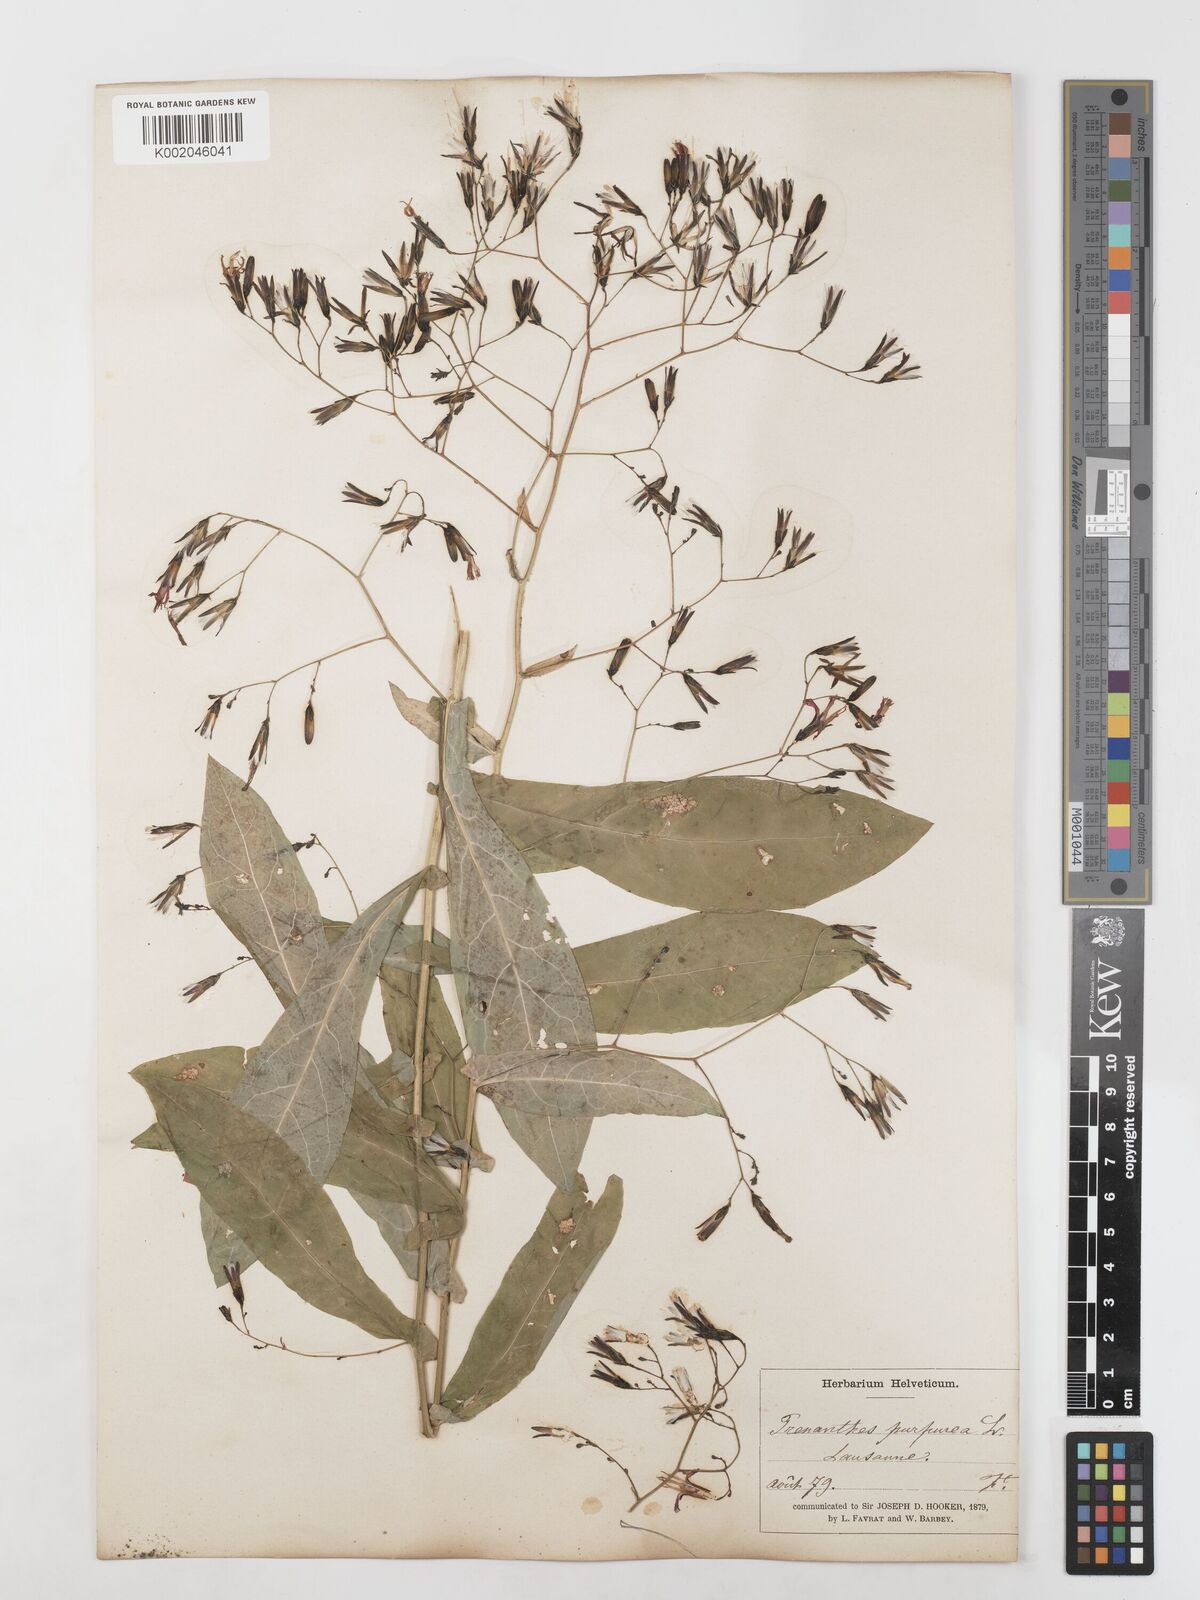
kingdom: Plantae
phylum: Tracheophyta
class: Magnoliopsida
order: Asterales
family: Asteraceae
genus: Prenanthes
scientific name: Prenanthes purpurea
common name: Purple lettuce
